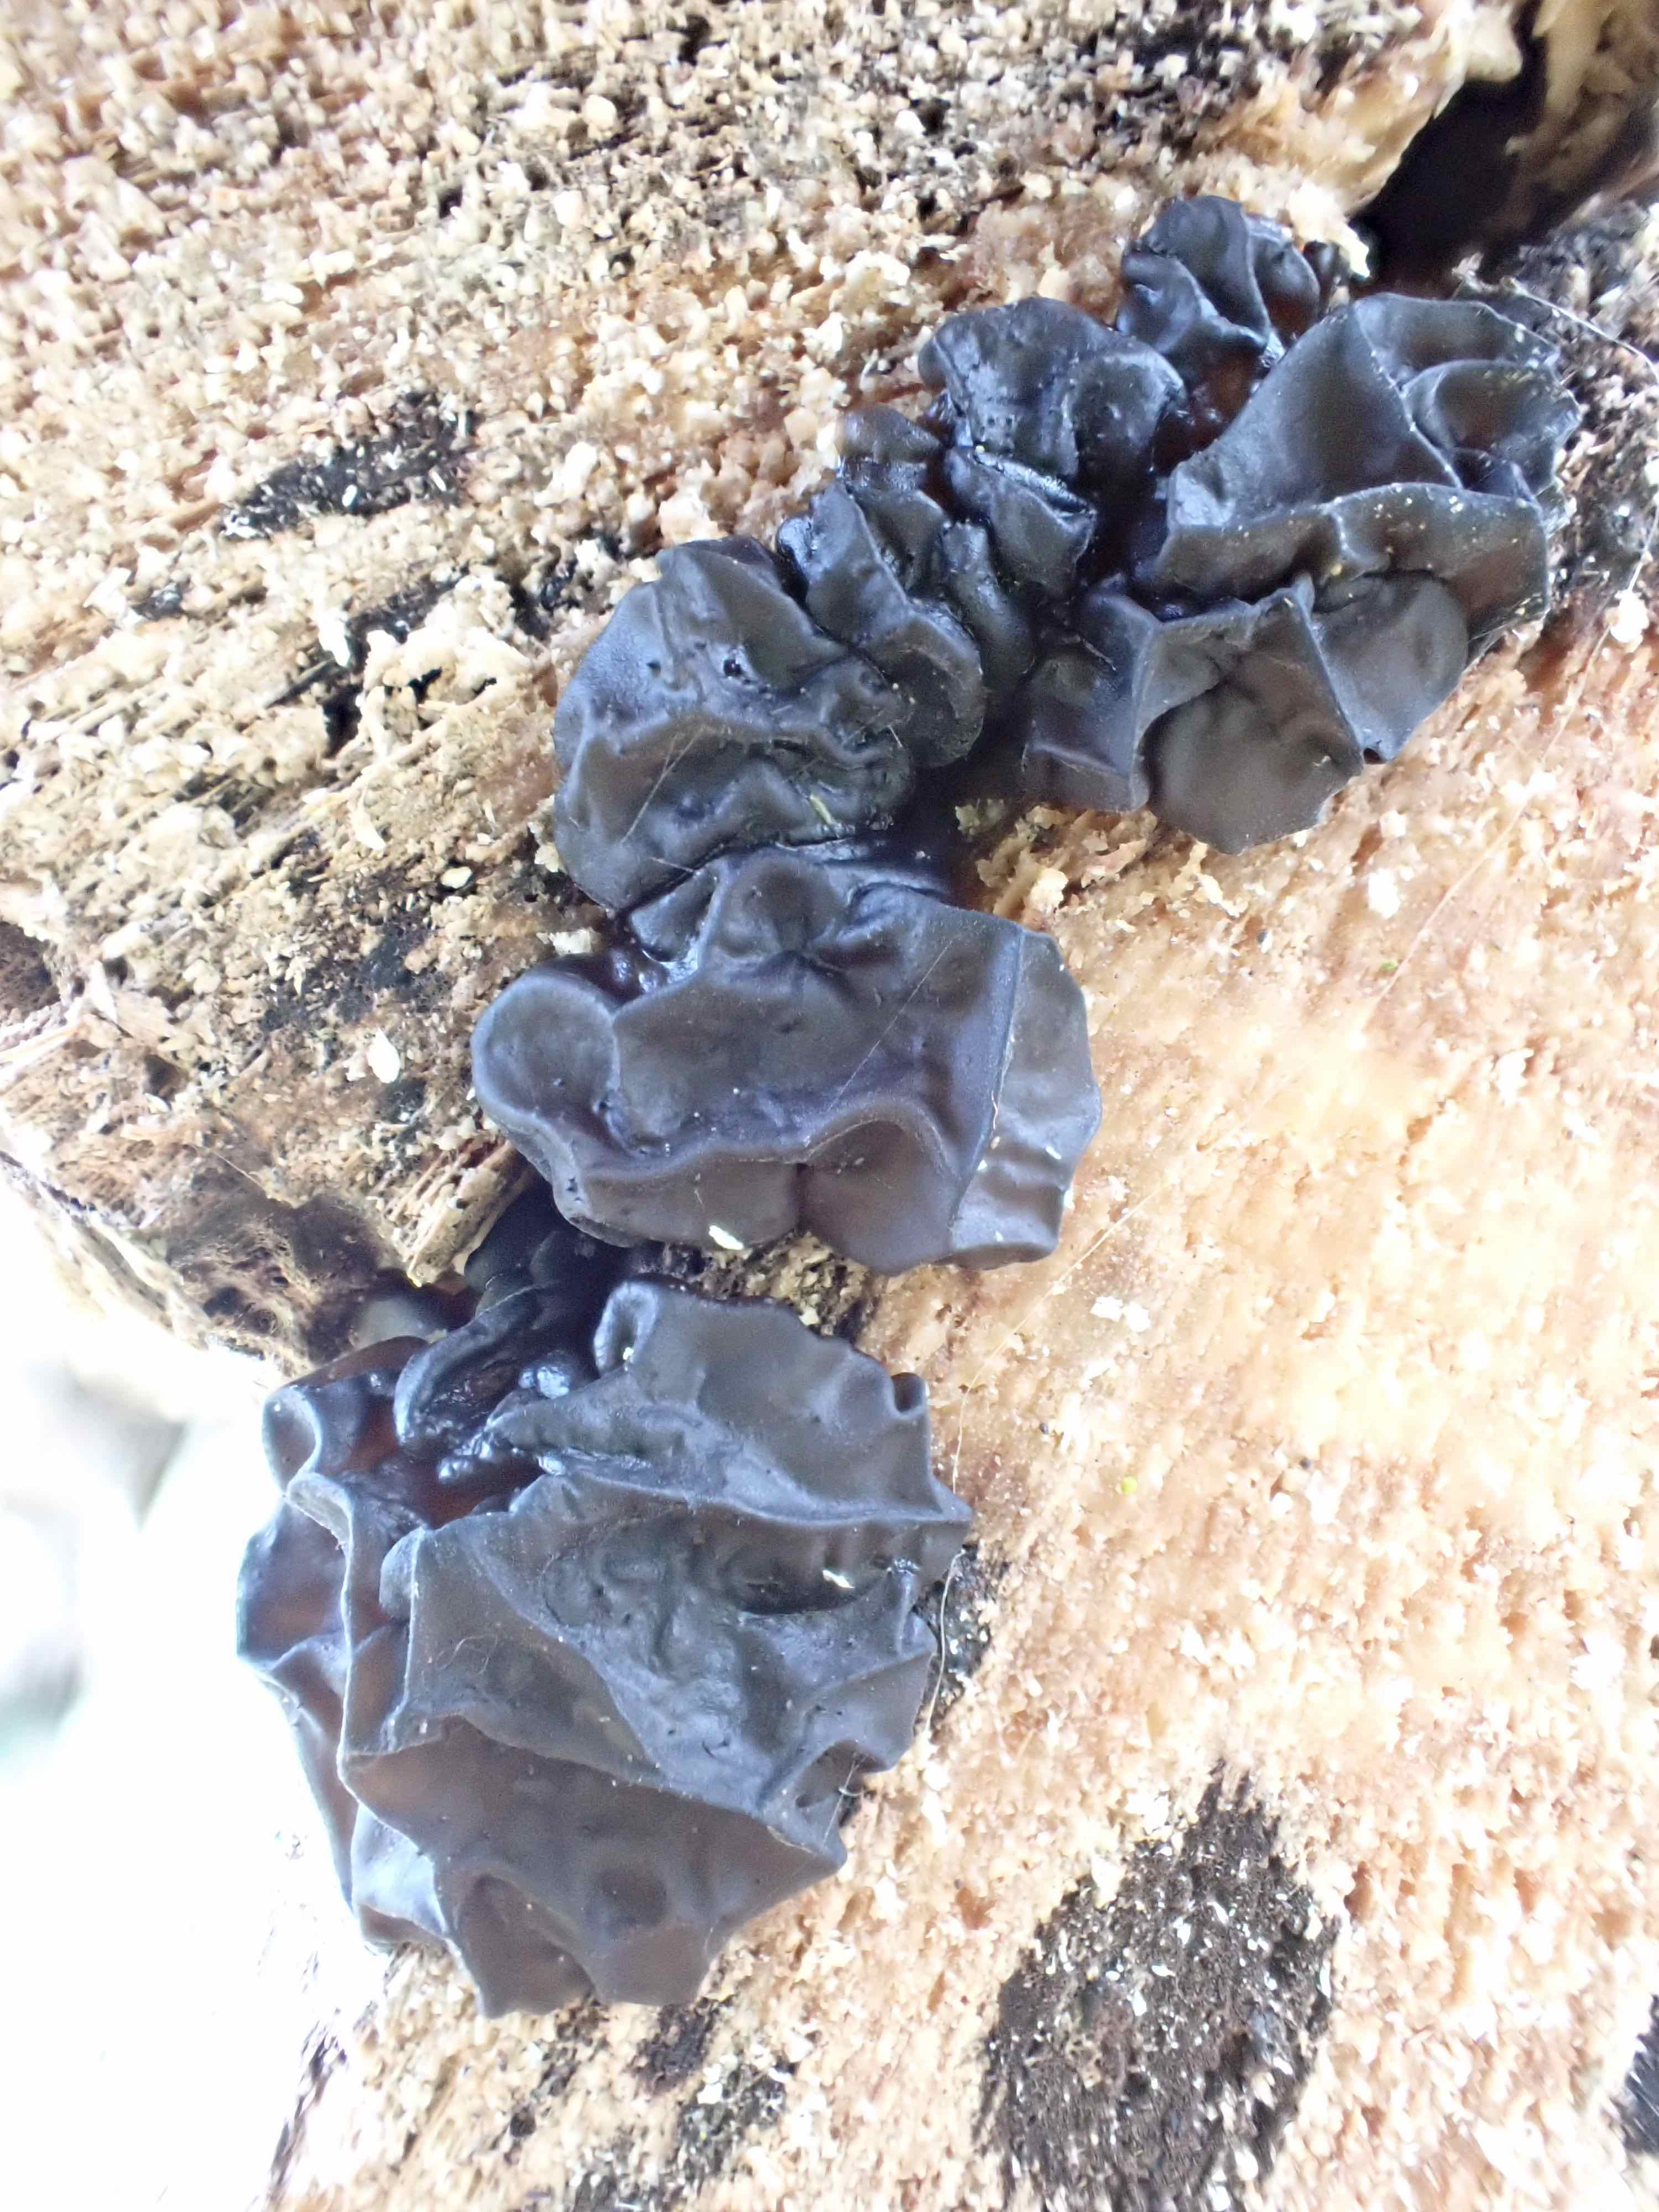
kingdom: Fungi
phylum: Basidiomycota
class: Agaricomycetes
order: Auriculariales
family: Auriculariaceae
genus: Exidia
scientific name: Exidia glandulosa
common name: ege-bævretop
